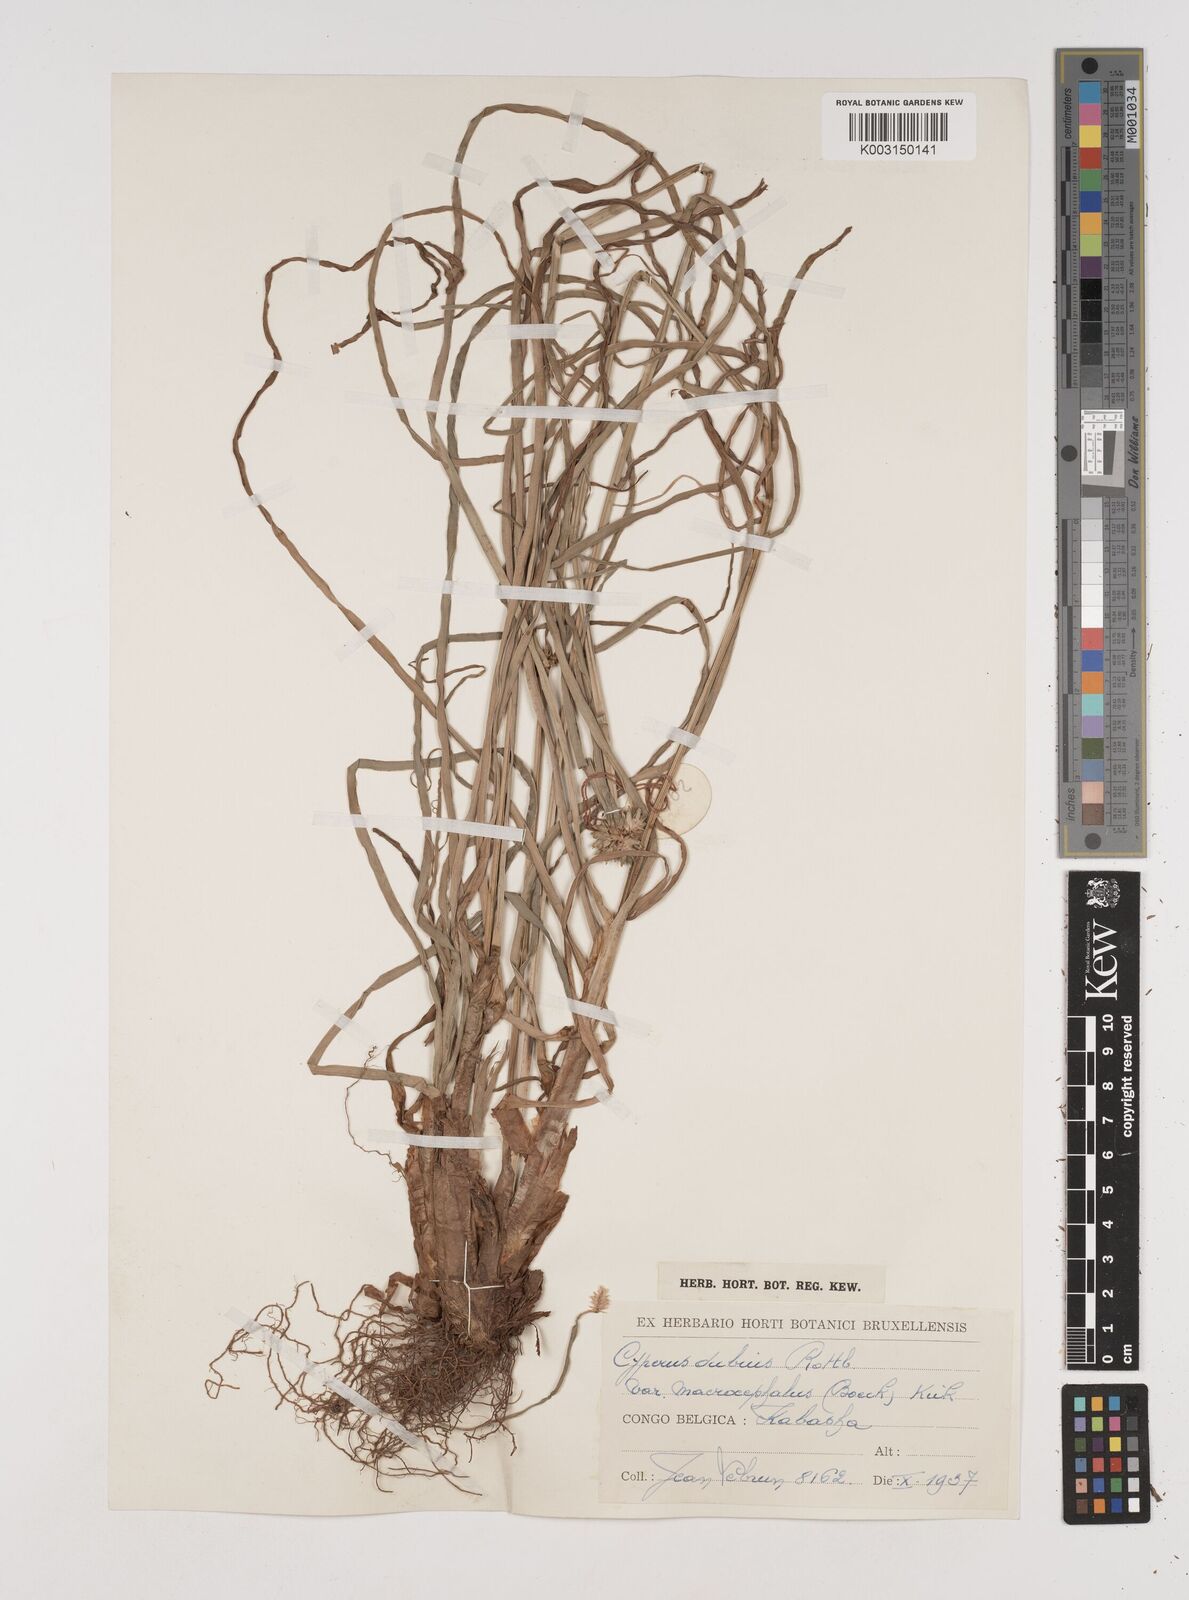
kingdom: Plantae
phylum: Tracheophyta
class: Liliopsida
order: Poales
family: Cyperaceae
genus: Cyperus
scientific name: Cyperus dubius
